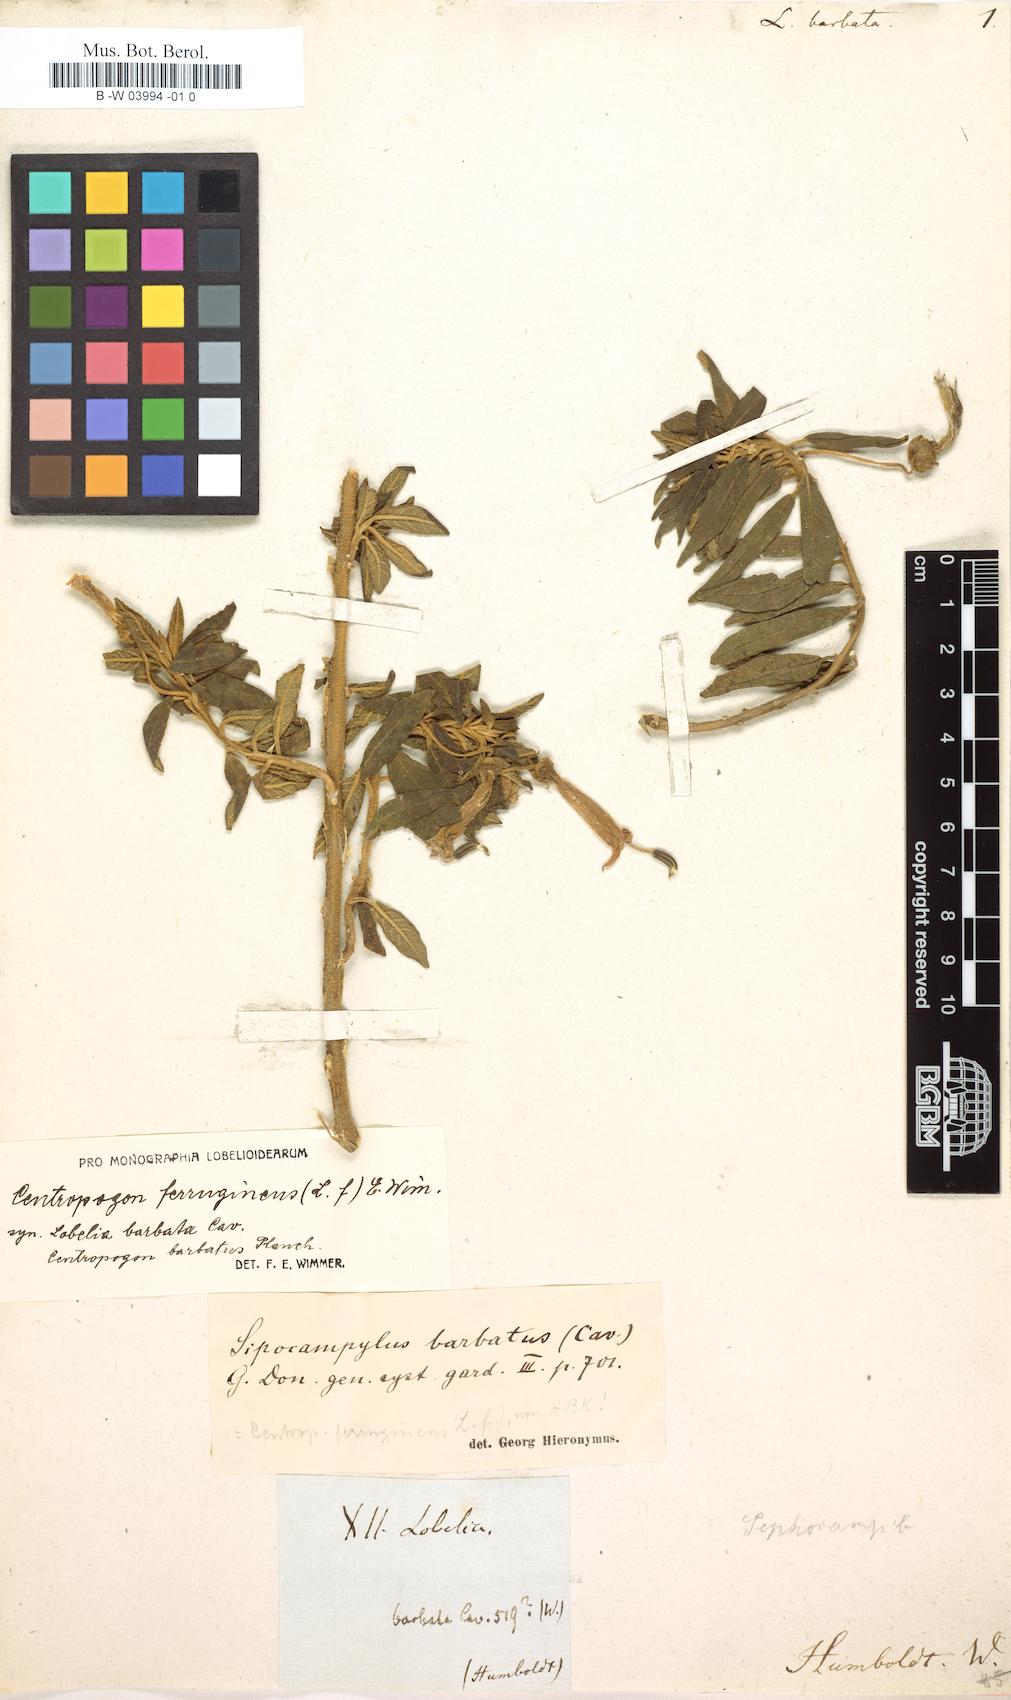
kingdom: Plantae
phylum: Tracheophyta
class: Magnoliopsida
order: Asterales
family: Campanulaceae
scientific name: Campanulaceae
